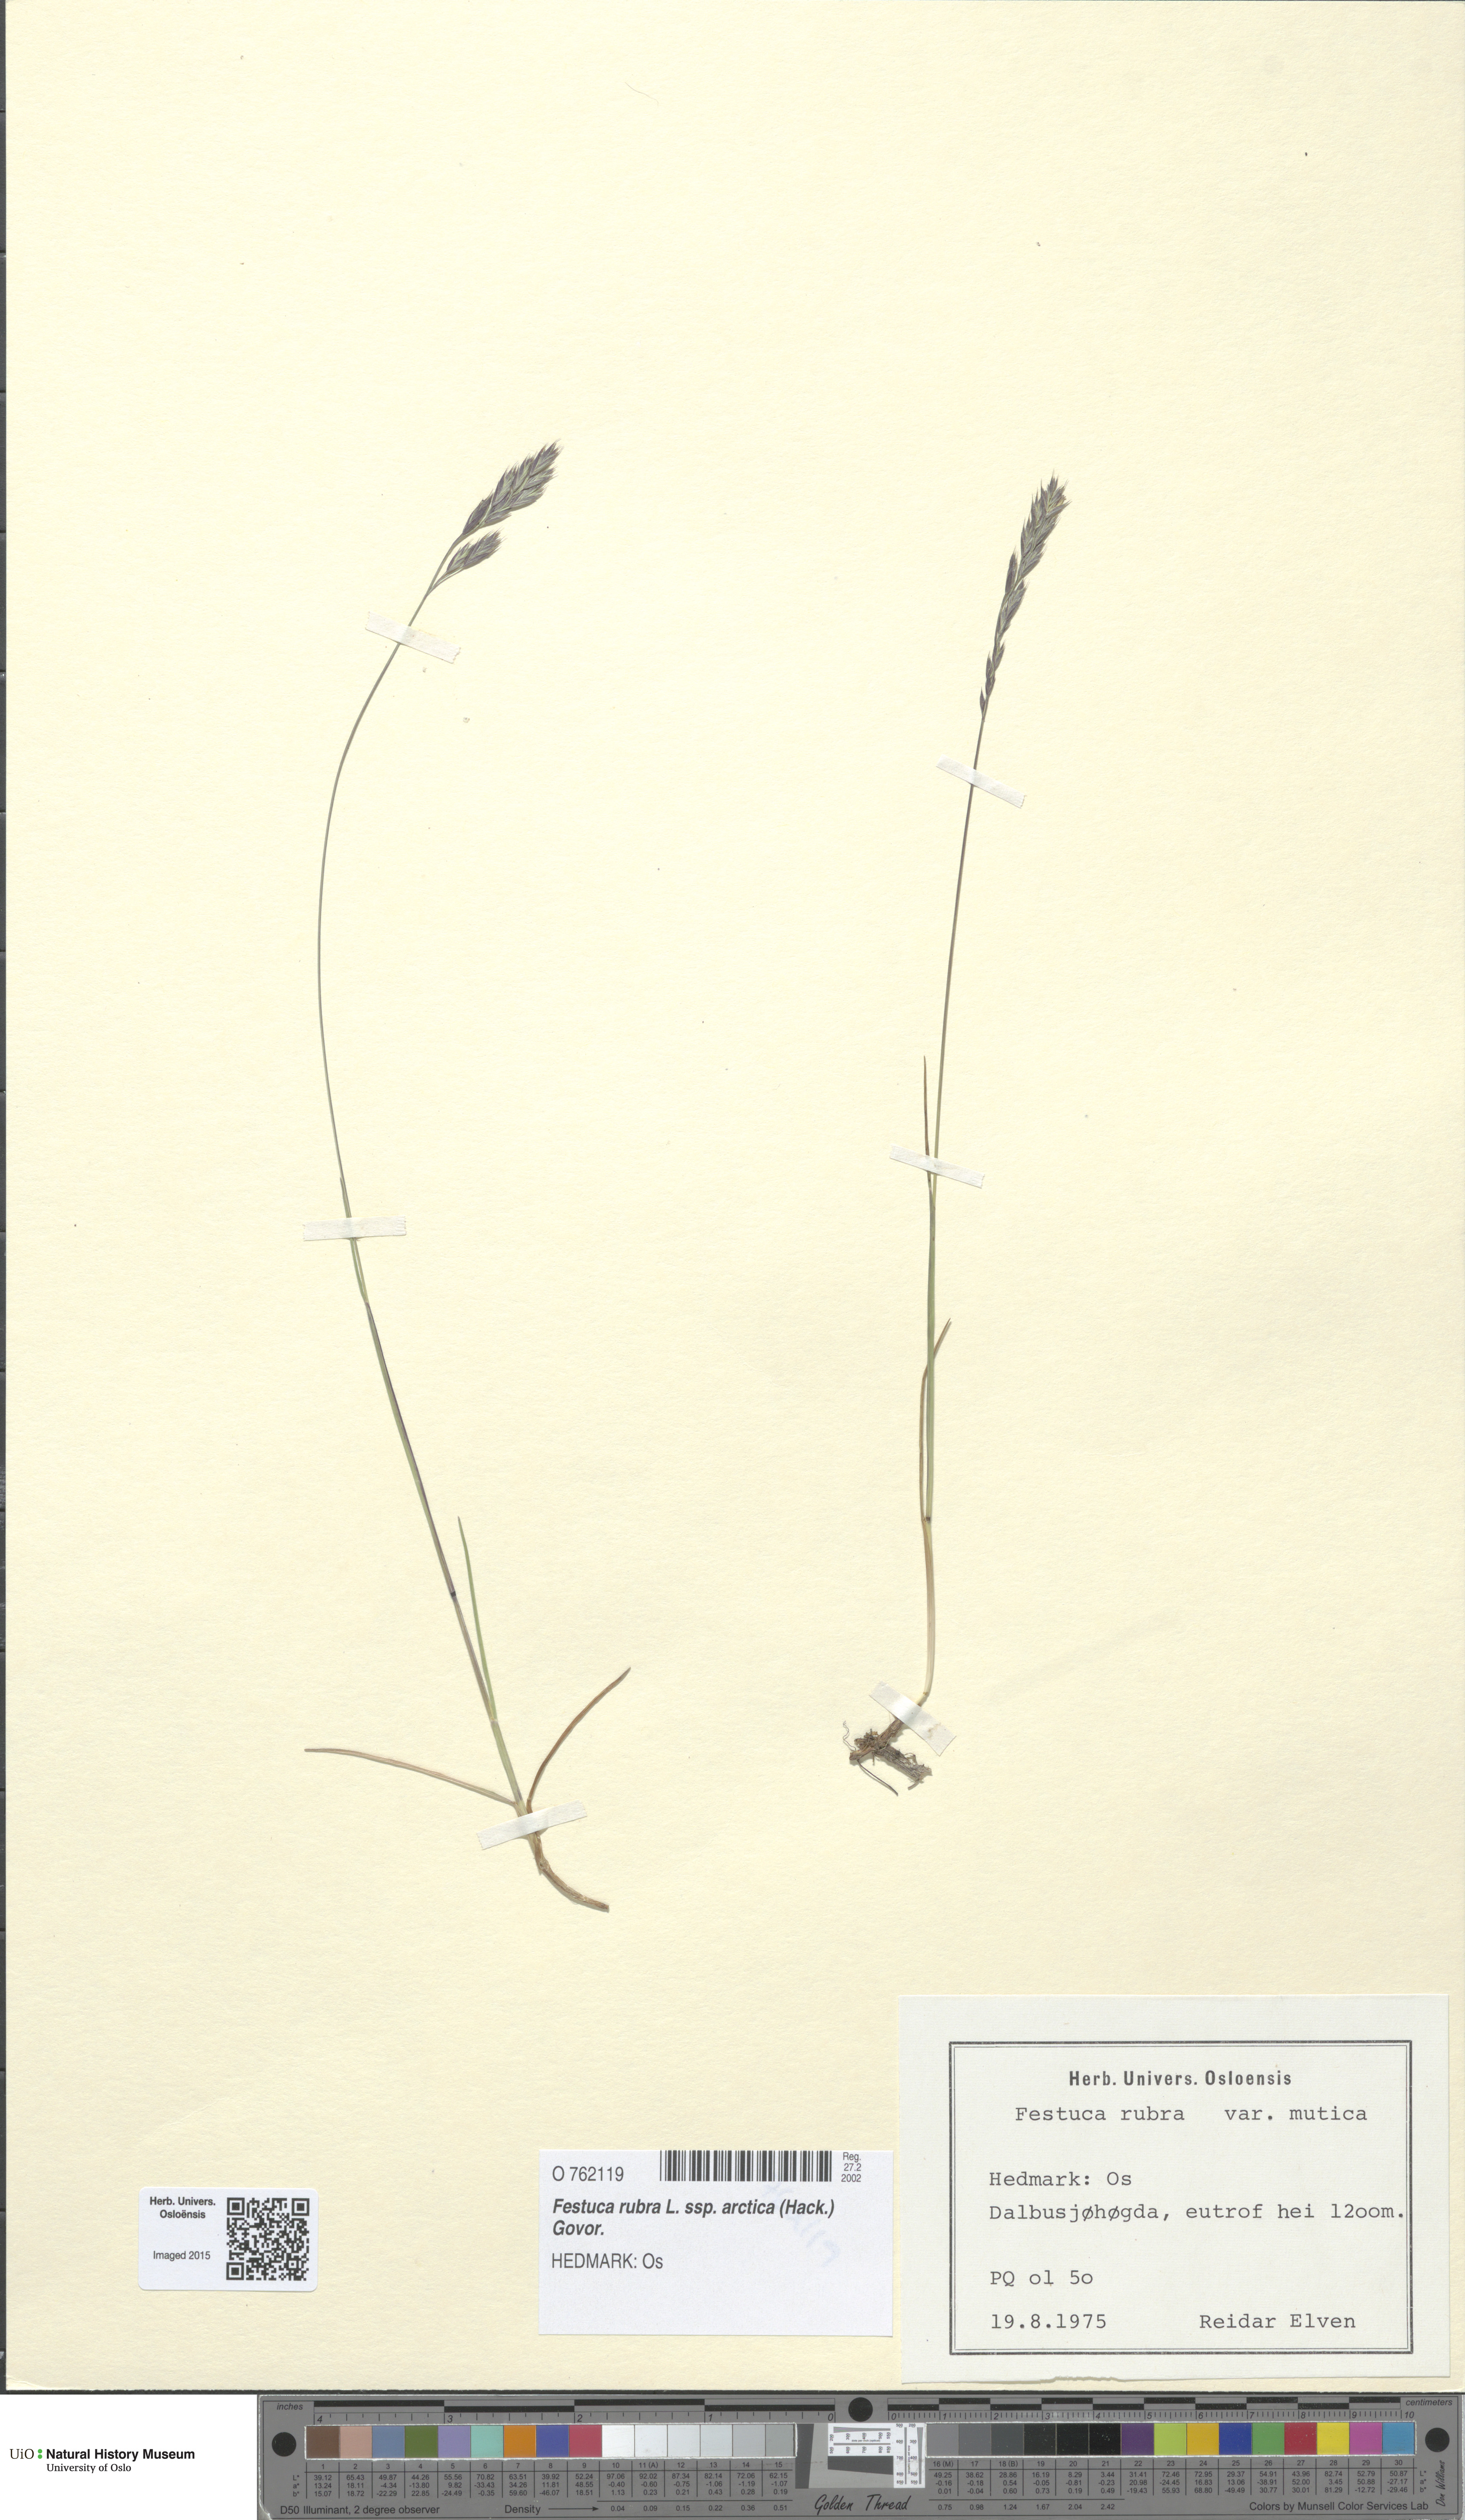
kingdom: Plantae
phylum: Tracheophyta
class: Liliopsida
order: Poales
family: Poaceae
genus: Festuca
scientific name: Festuca richardsonii
